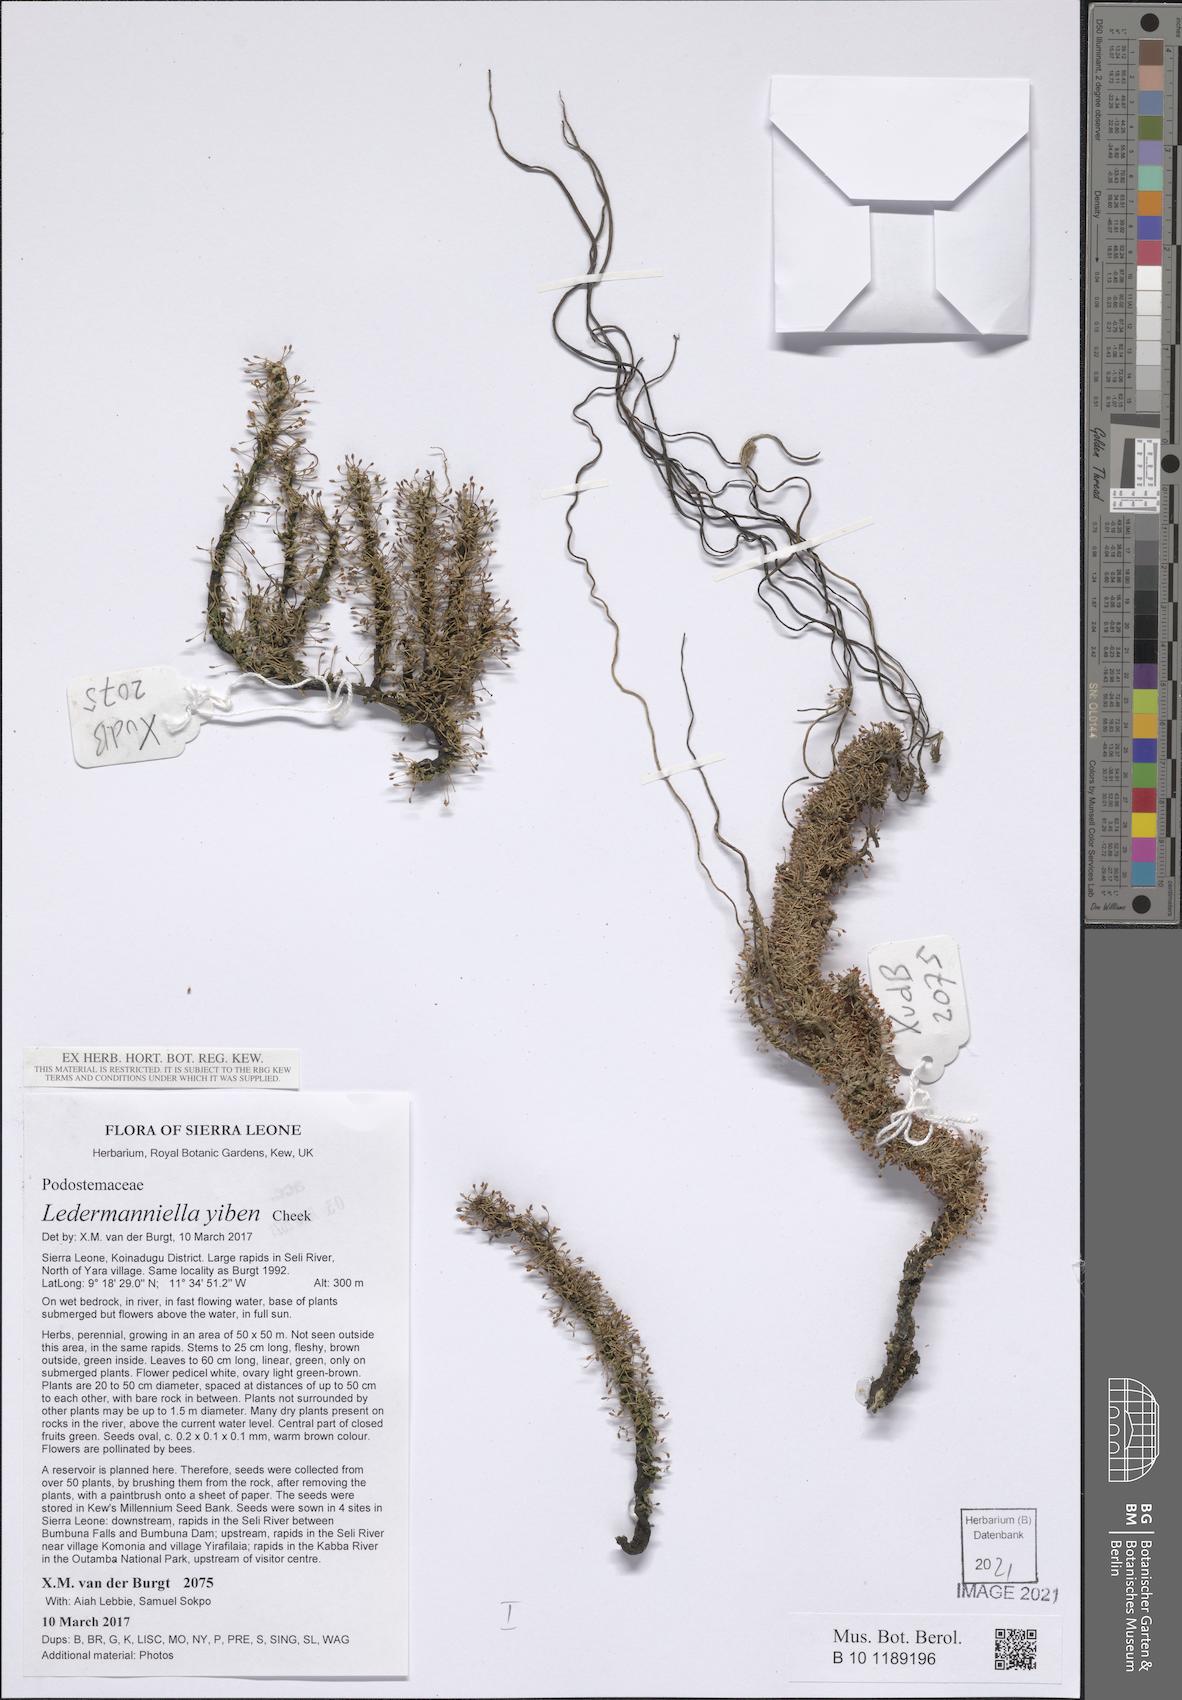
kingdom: Plantae
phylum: Tracheophyta
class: Magnoliopsida
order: Malpighiales
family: Podostemaceae
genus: Ledermanniella
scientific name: Ledermanniella yiben
